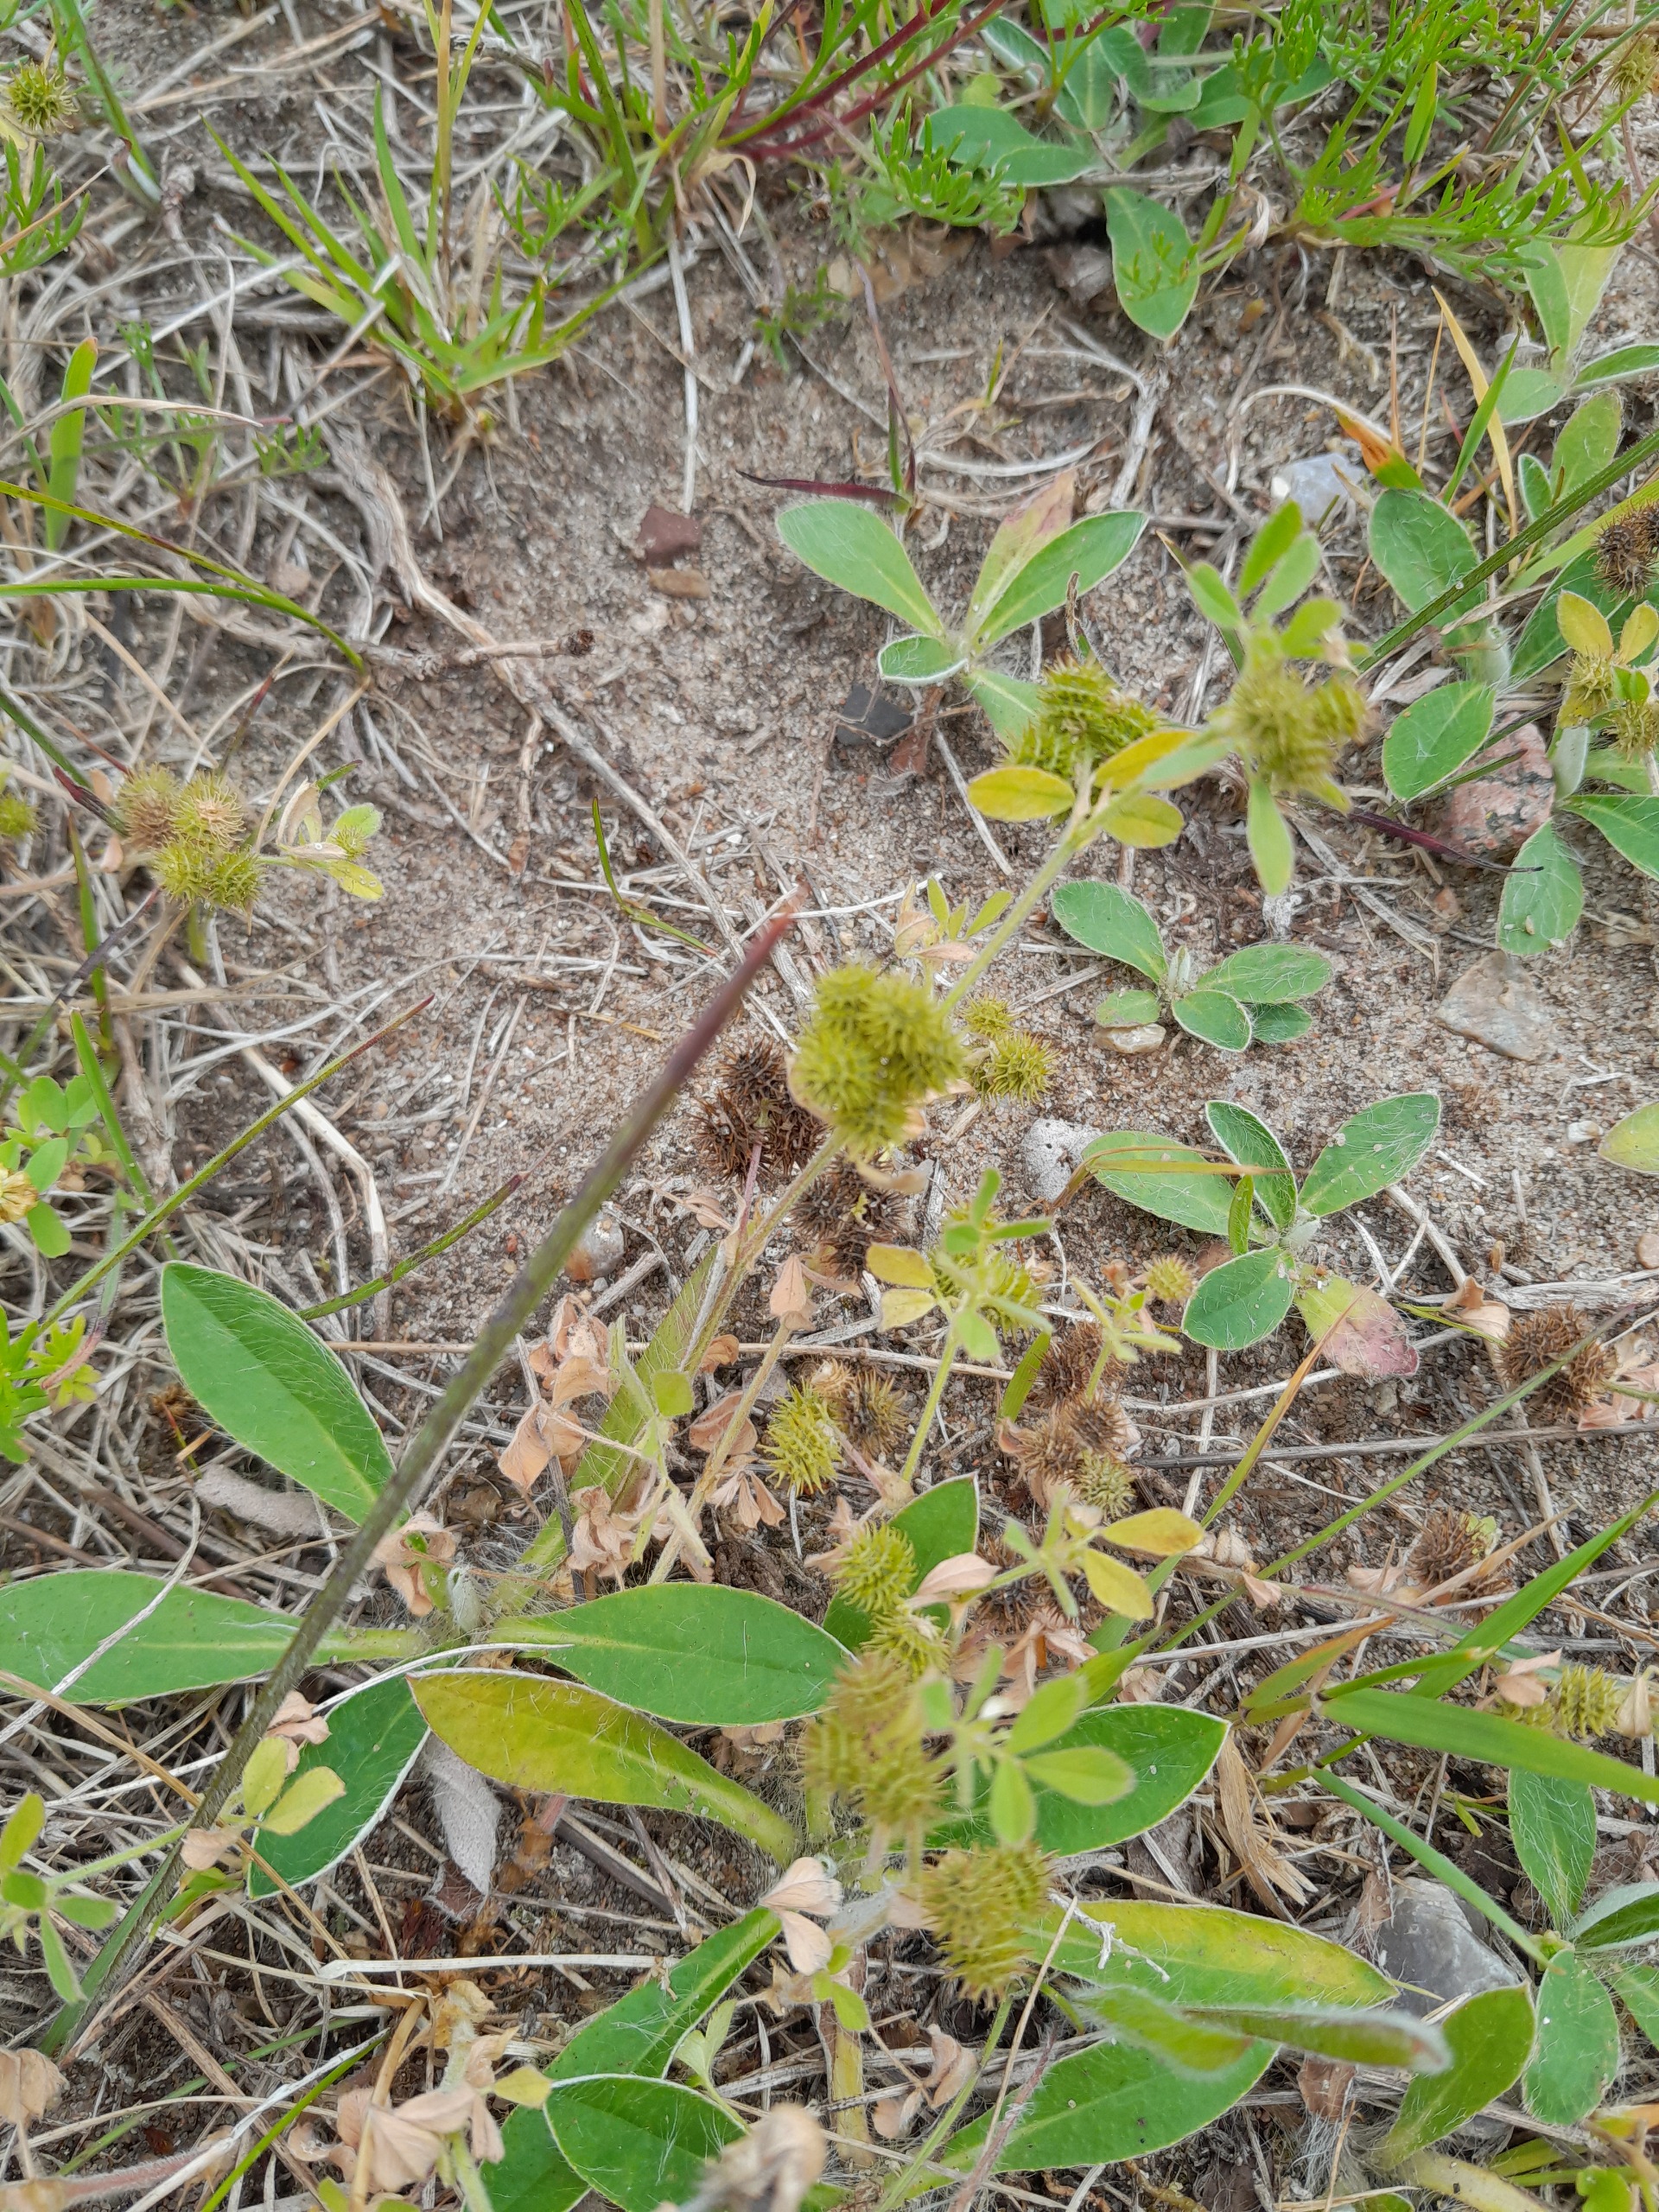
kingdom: Plantae
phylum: Tracheophyta
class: Magnoliopsida
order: Fabales
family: Fabaceae
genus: Medicago
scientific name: Medicago minima
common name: Liden sneglebælg
